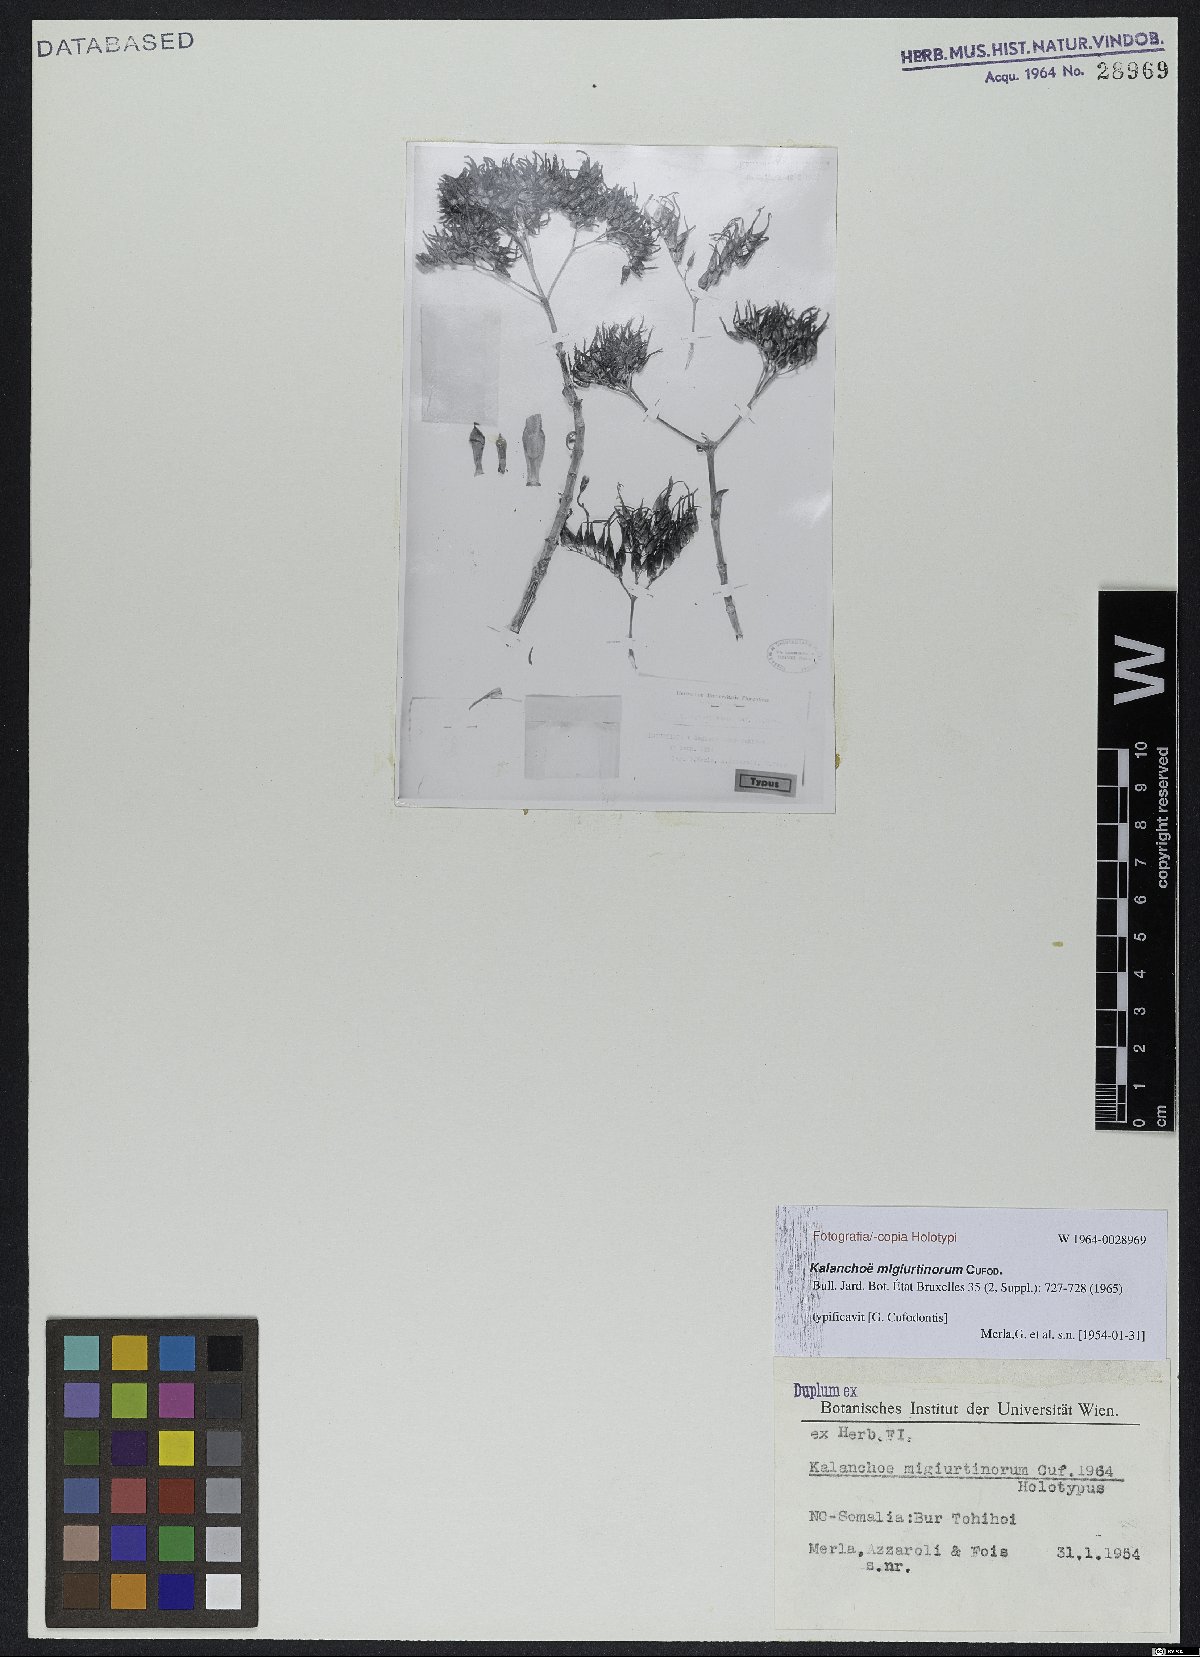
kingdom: Plantae
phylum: Tracheophyta
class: Magnoliopsida
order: Saxifragales
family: Crassulaceae
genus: Kalanchoe
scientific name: Kalanchoe migiurtinorum
